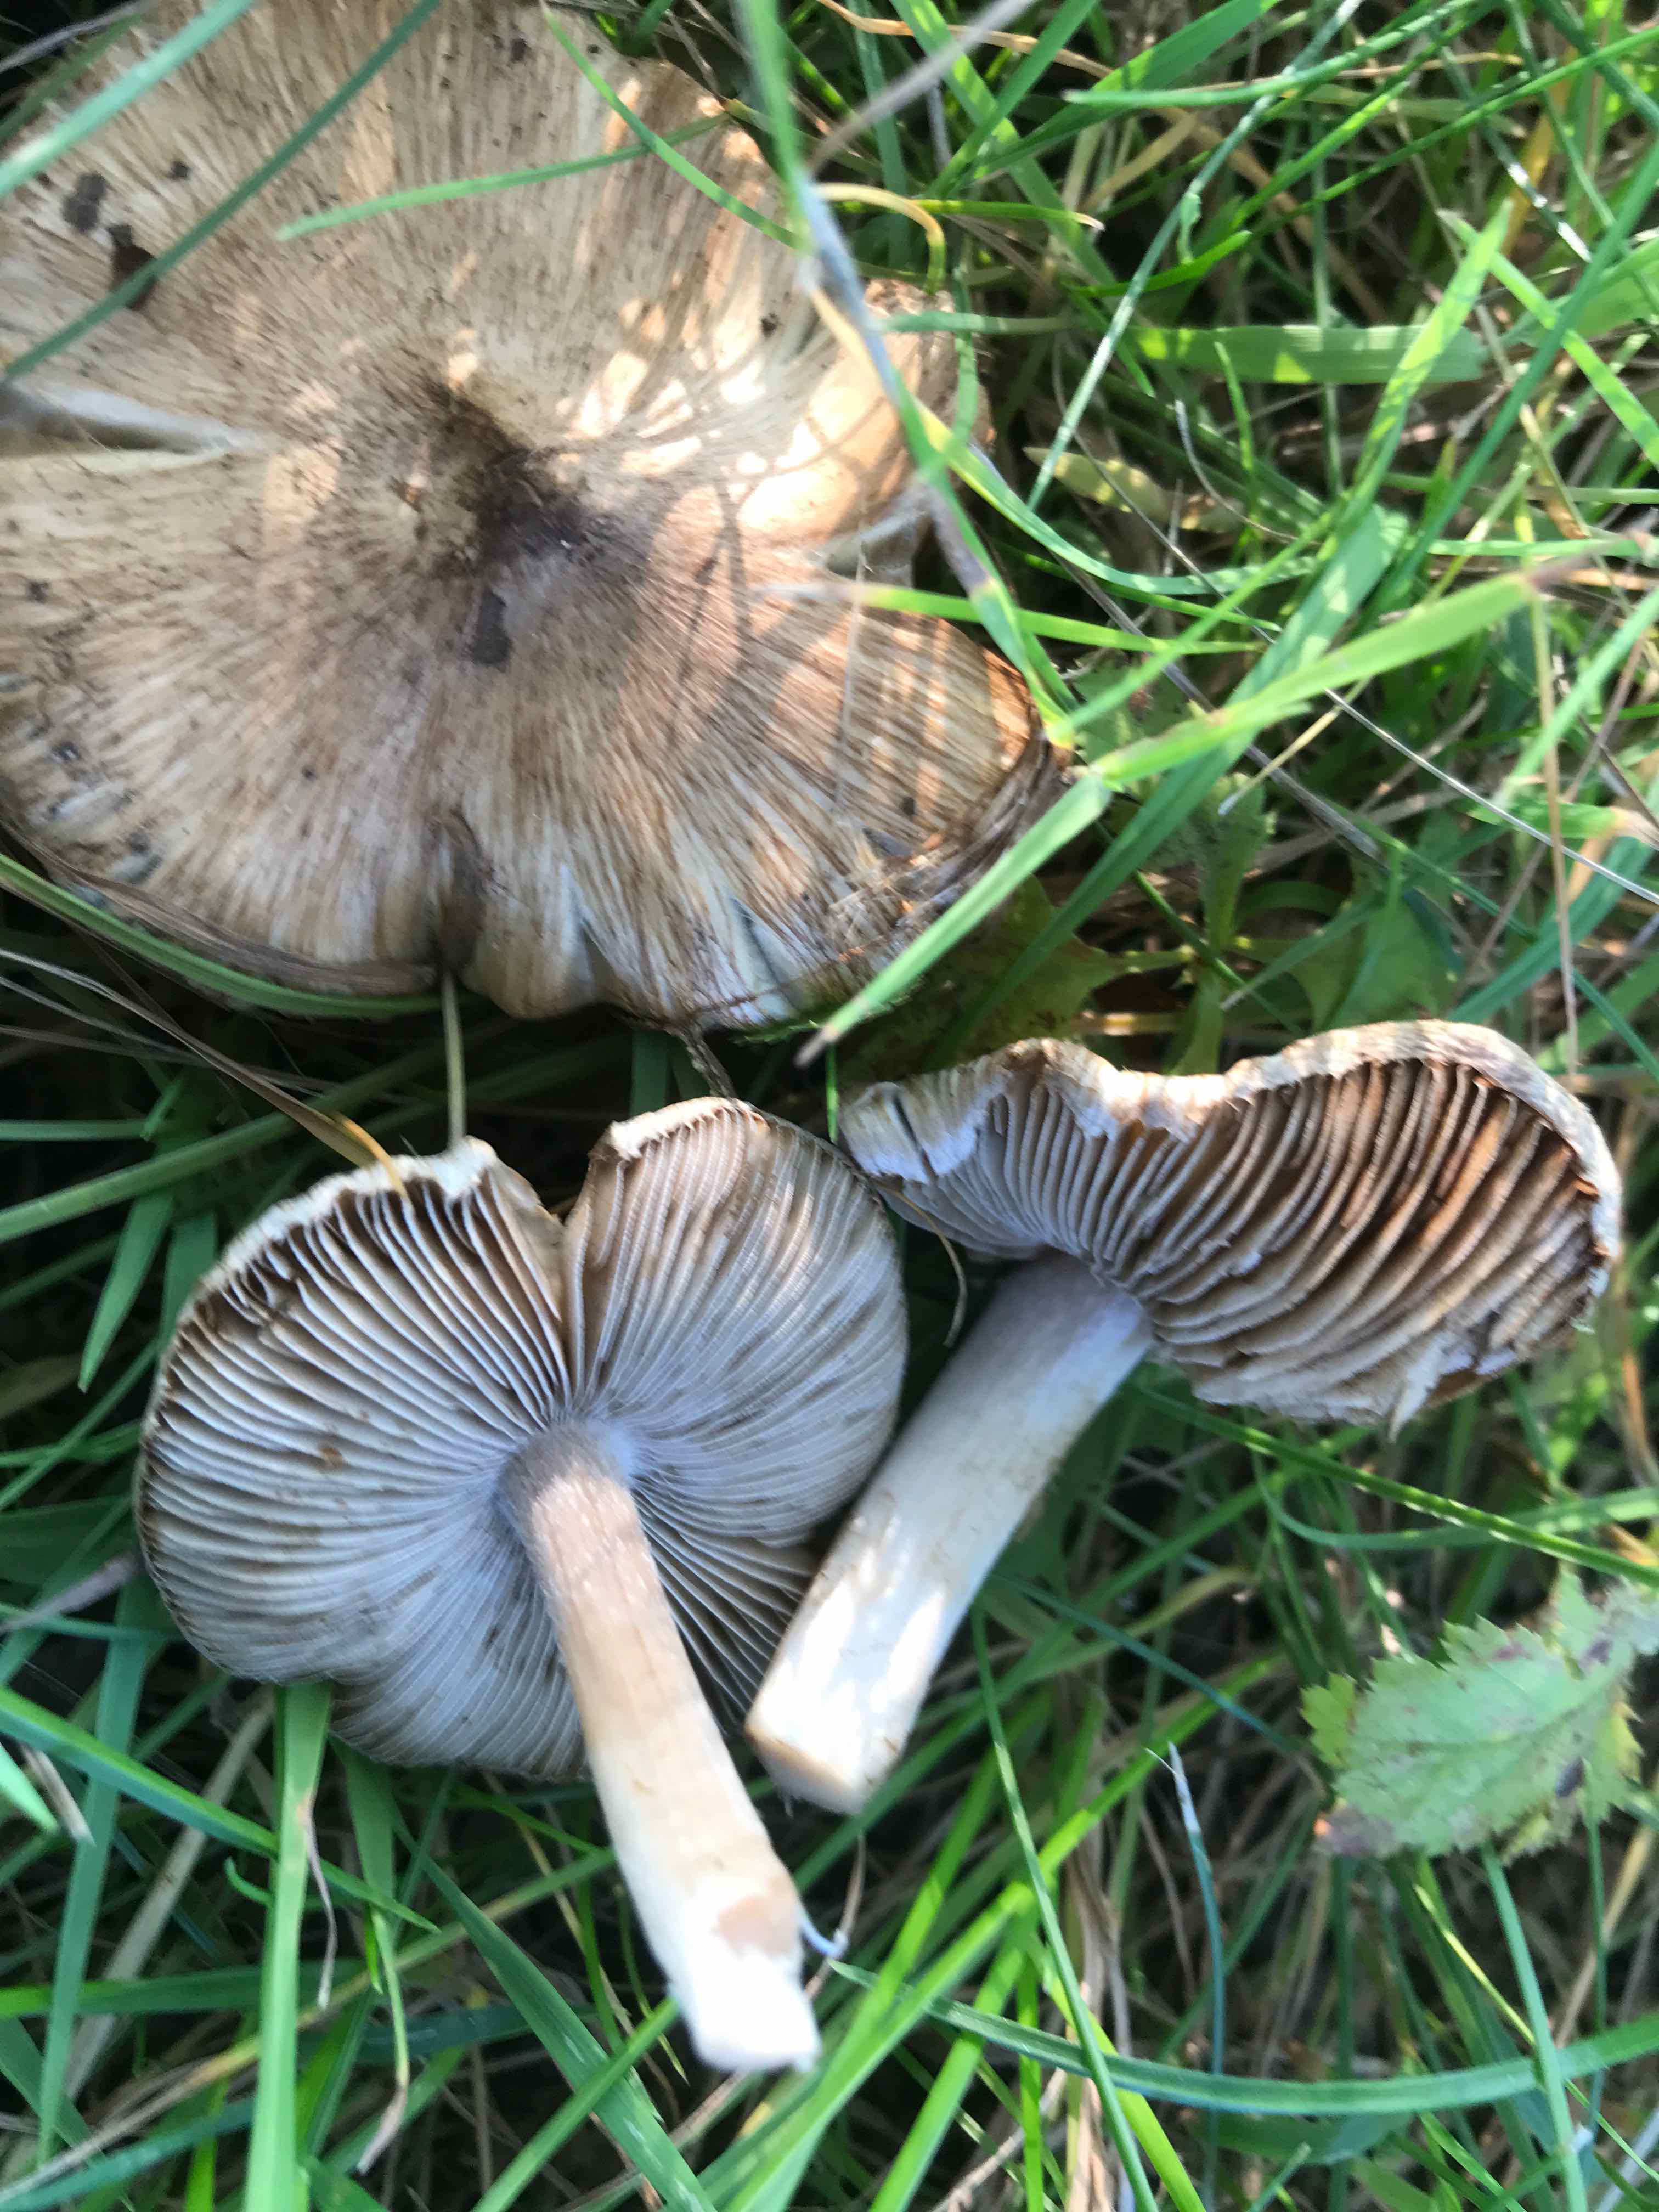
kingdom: Fungi
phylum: Basidiomycota
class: Agaricomycetes
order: Agaricales
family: Inocybaceae
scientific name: Inocybaceae
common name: trævlhatfamilien
